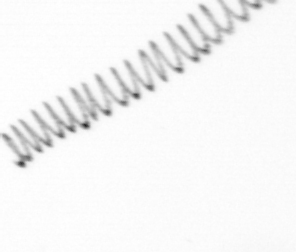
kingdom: Chromista
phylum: Ochrophyta
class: Bacillariophyceae
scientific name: Bacillariophyceae
